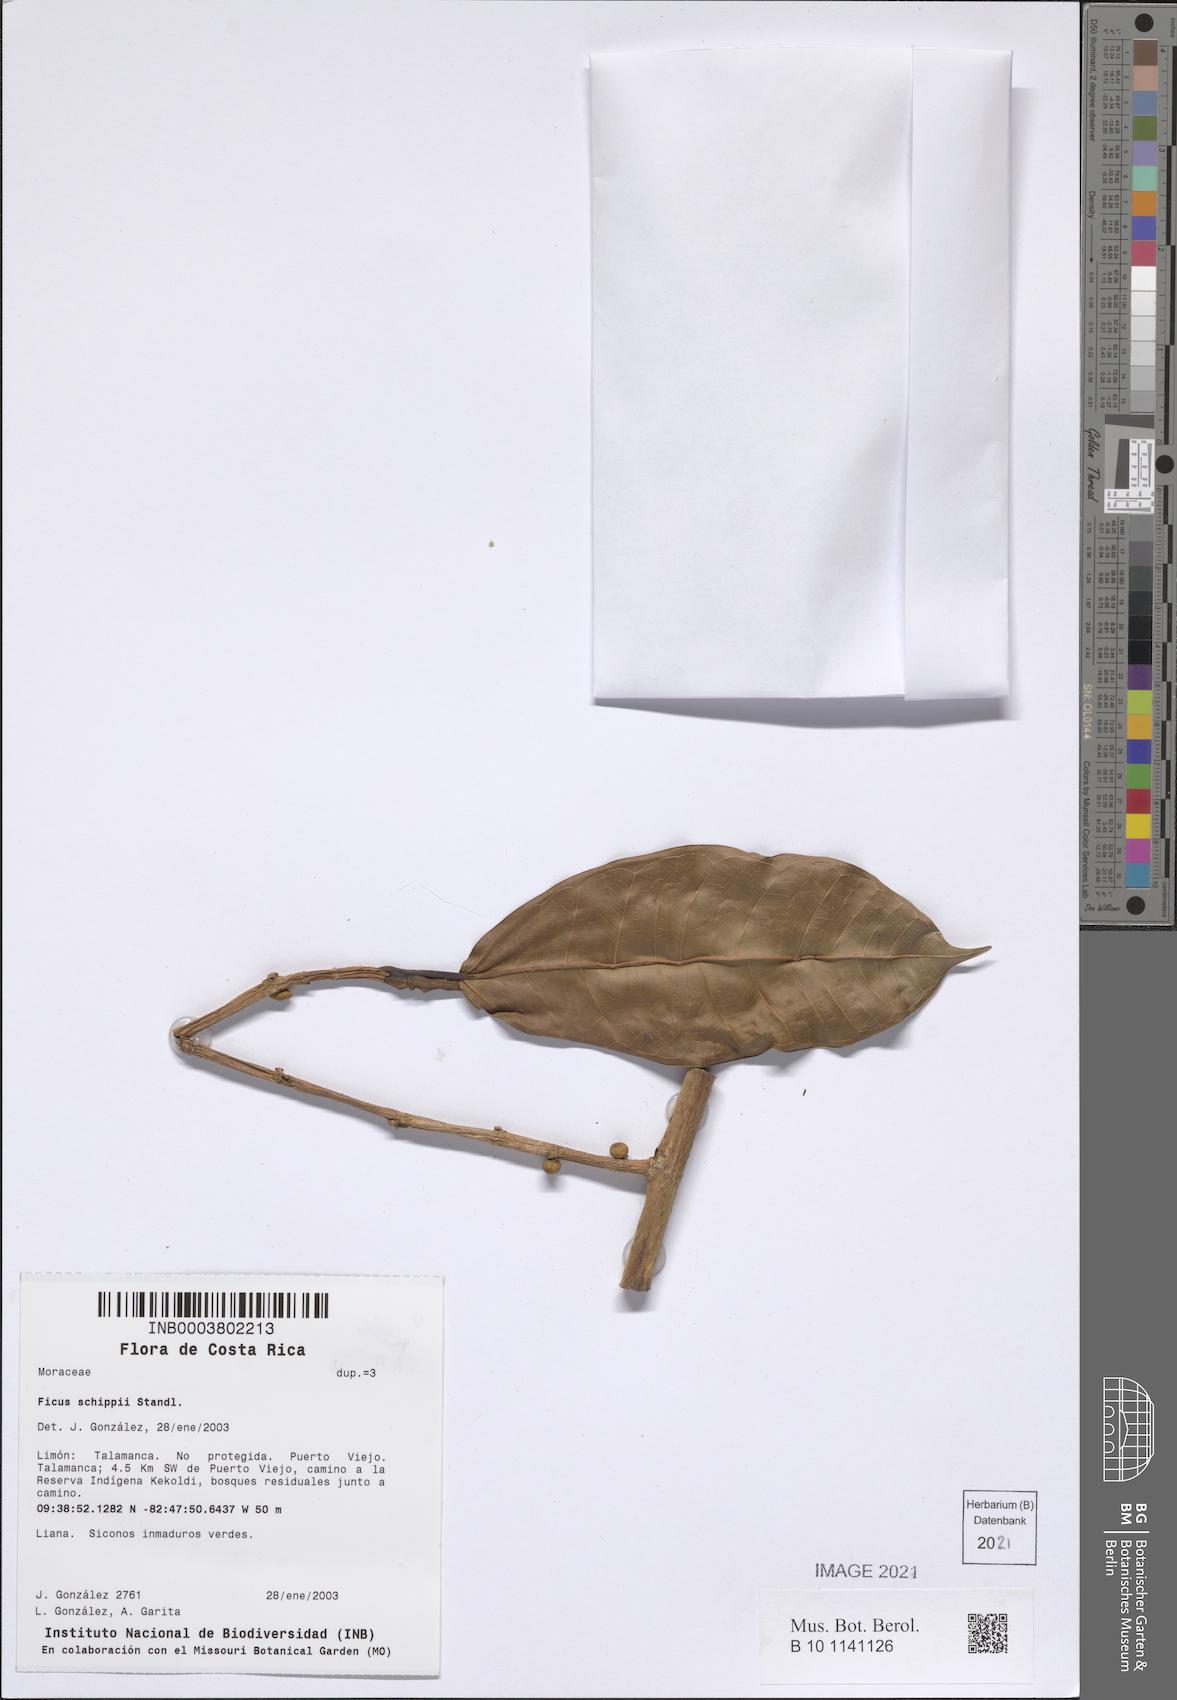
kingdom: Plantae
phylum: Tracheophyta
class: Magnoliopsida
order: Rosales
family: Moraceae
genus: Ficus
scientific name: Ficus schippii
